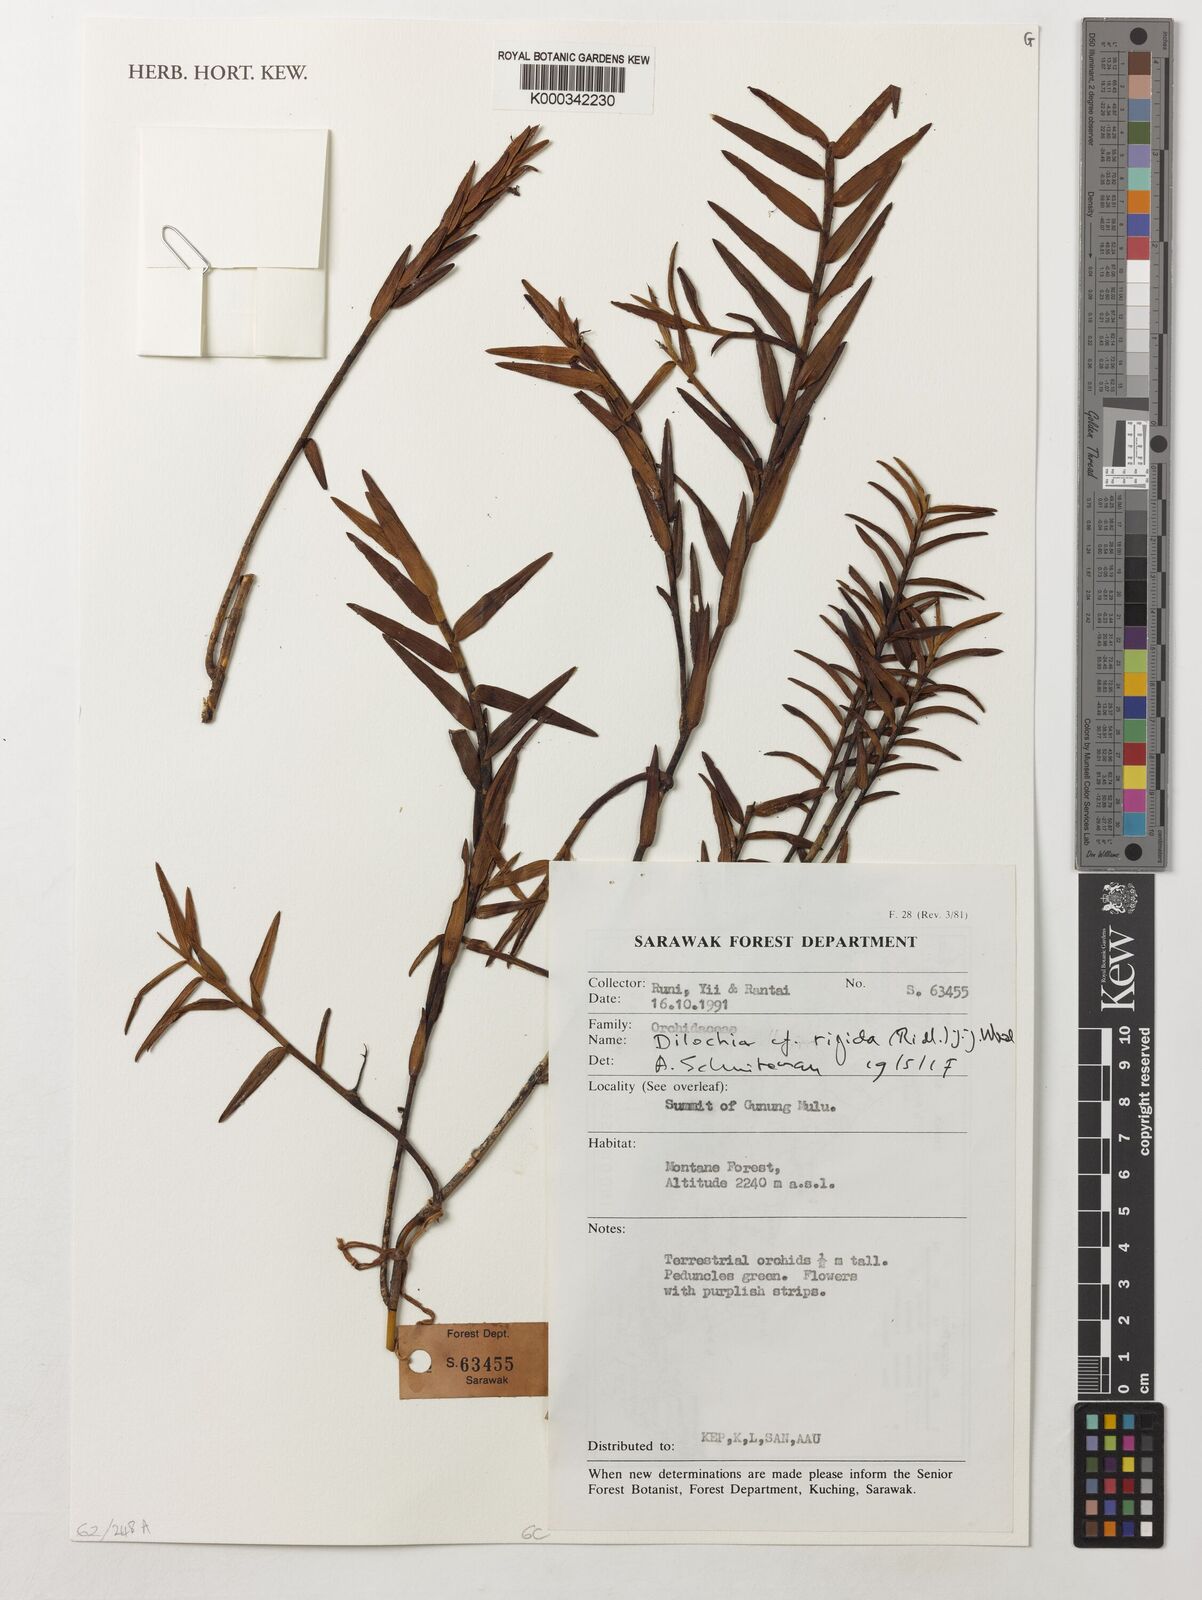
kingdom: Plantae
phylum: Tracheophyta
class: Liliopsida
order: Asparagales
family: Orchidaceae
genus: Dilochia
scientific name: Dilochia rigida
